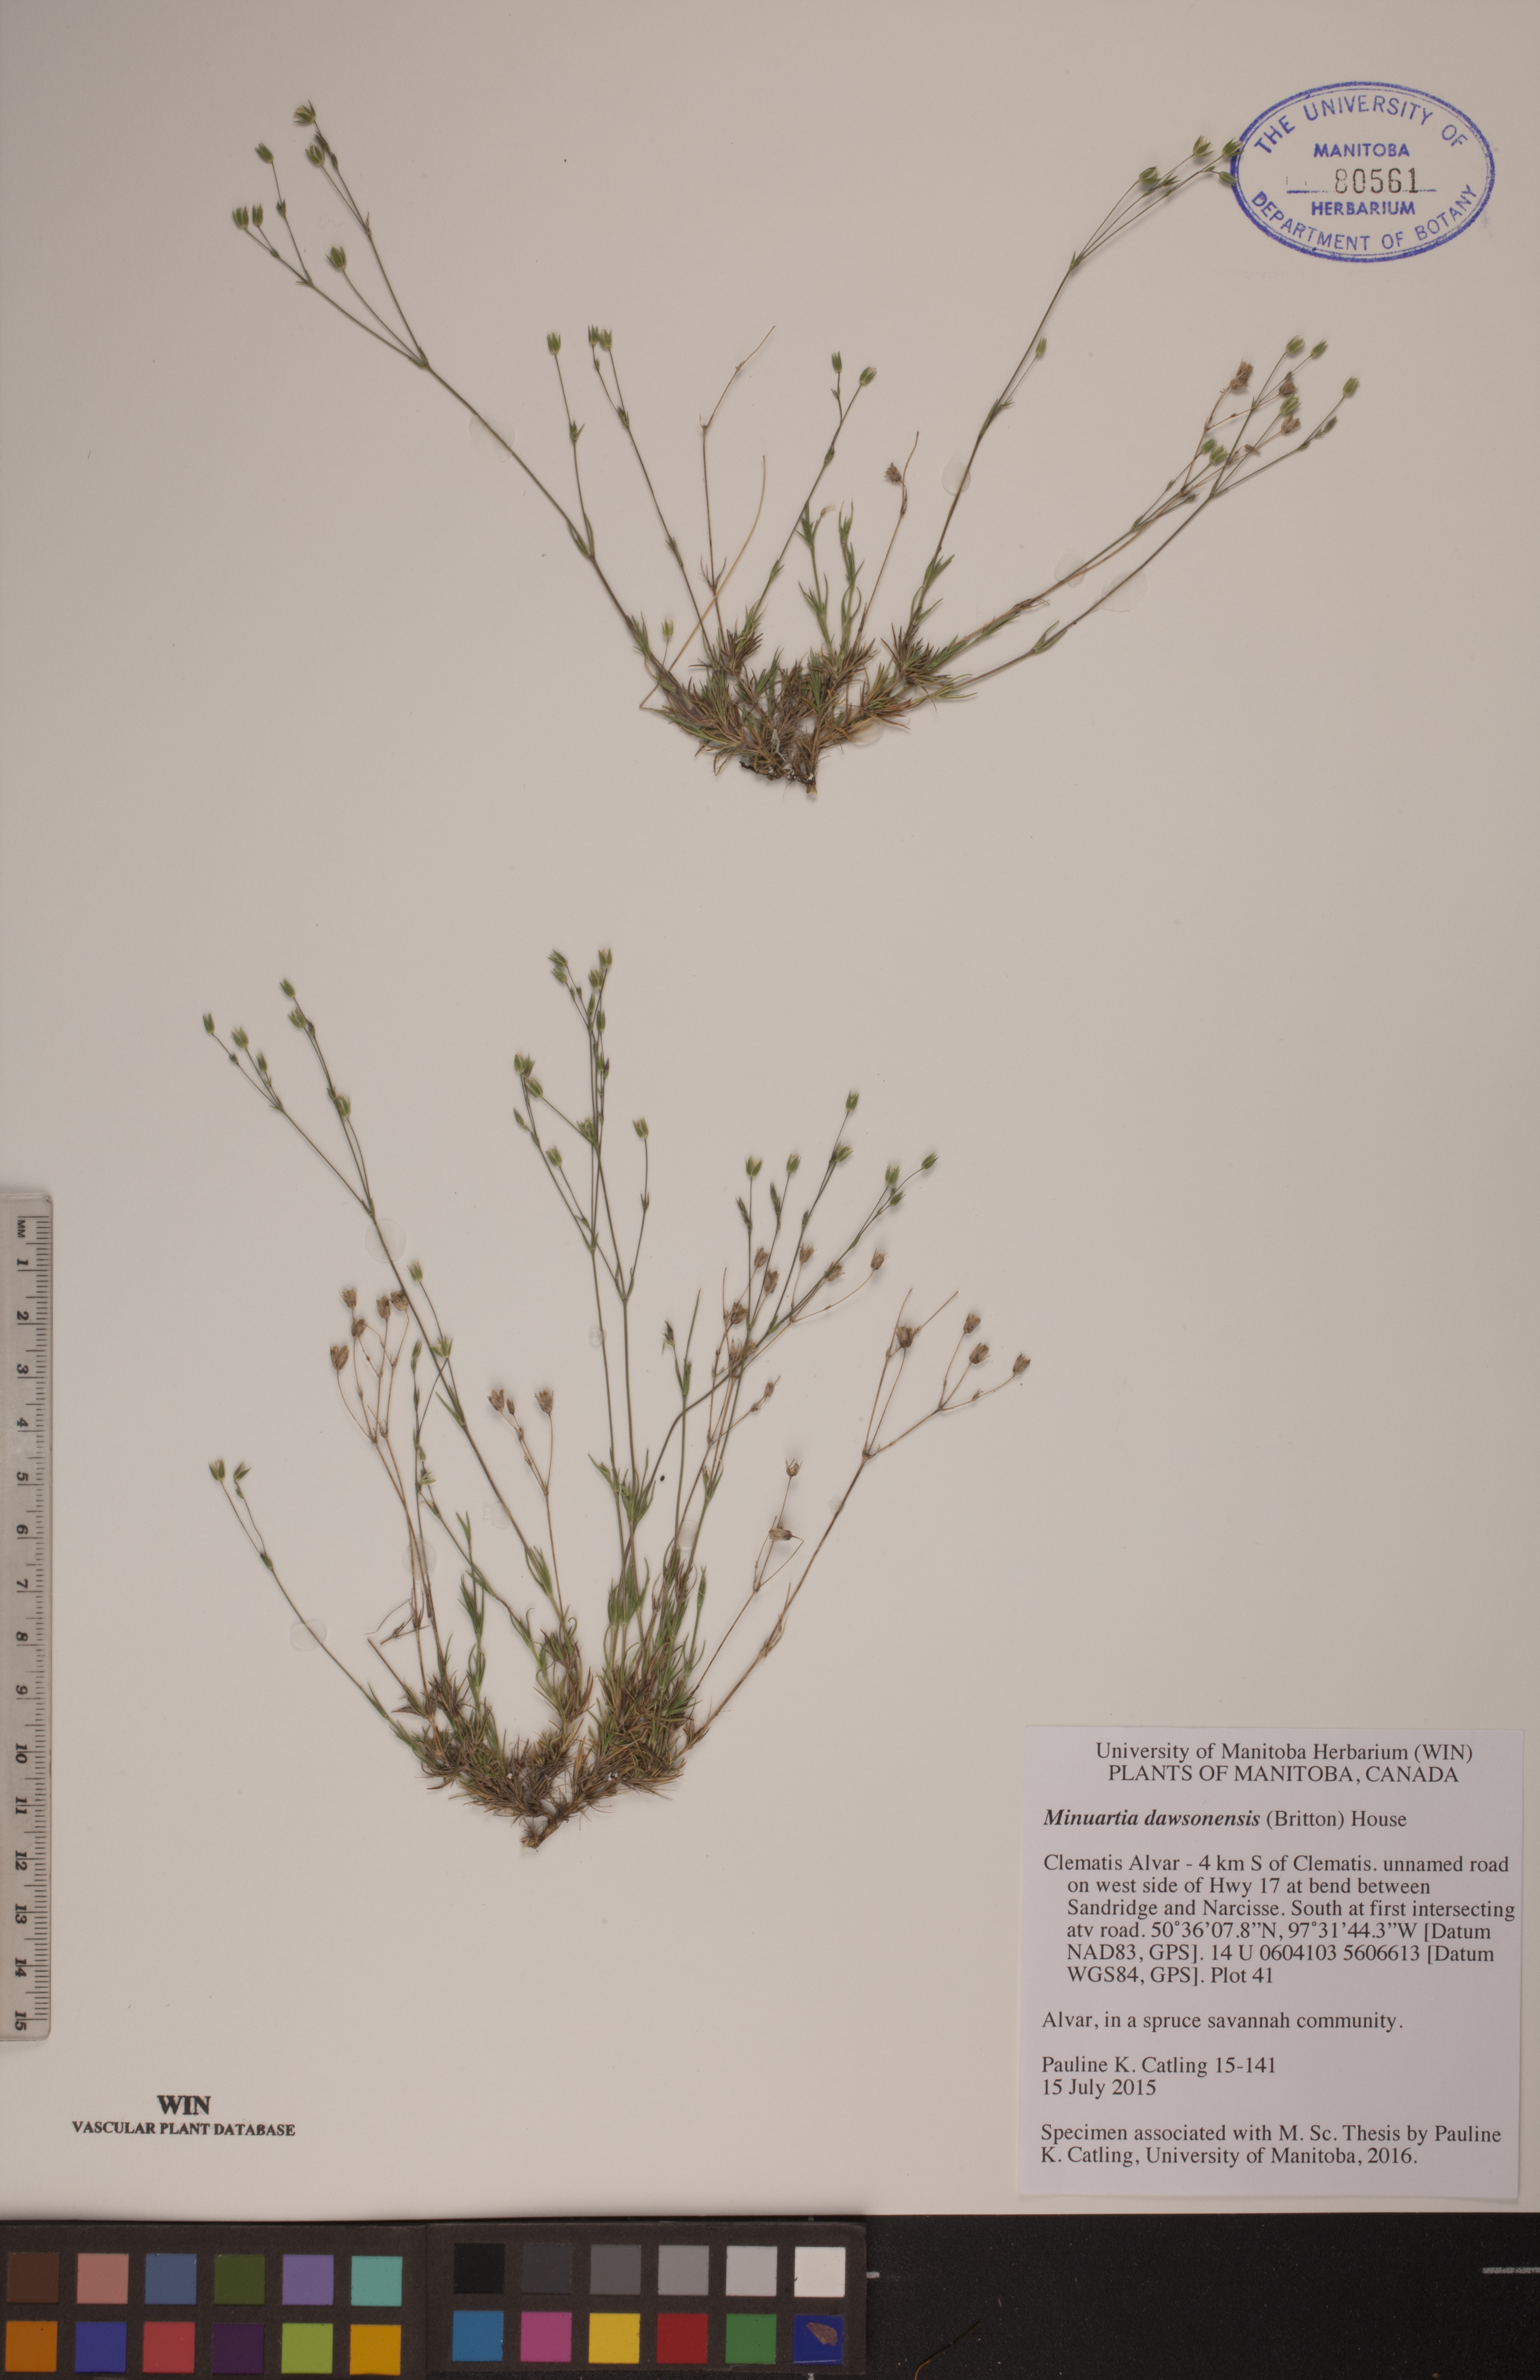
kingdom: Plantae
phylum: Tracheophyta
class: Magnoliopsida
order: Caryophyllales
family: Caryophyllaceae
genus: Sabulina
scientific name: Sabulina dawsonensis
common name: Dawson's cockle
